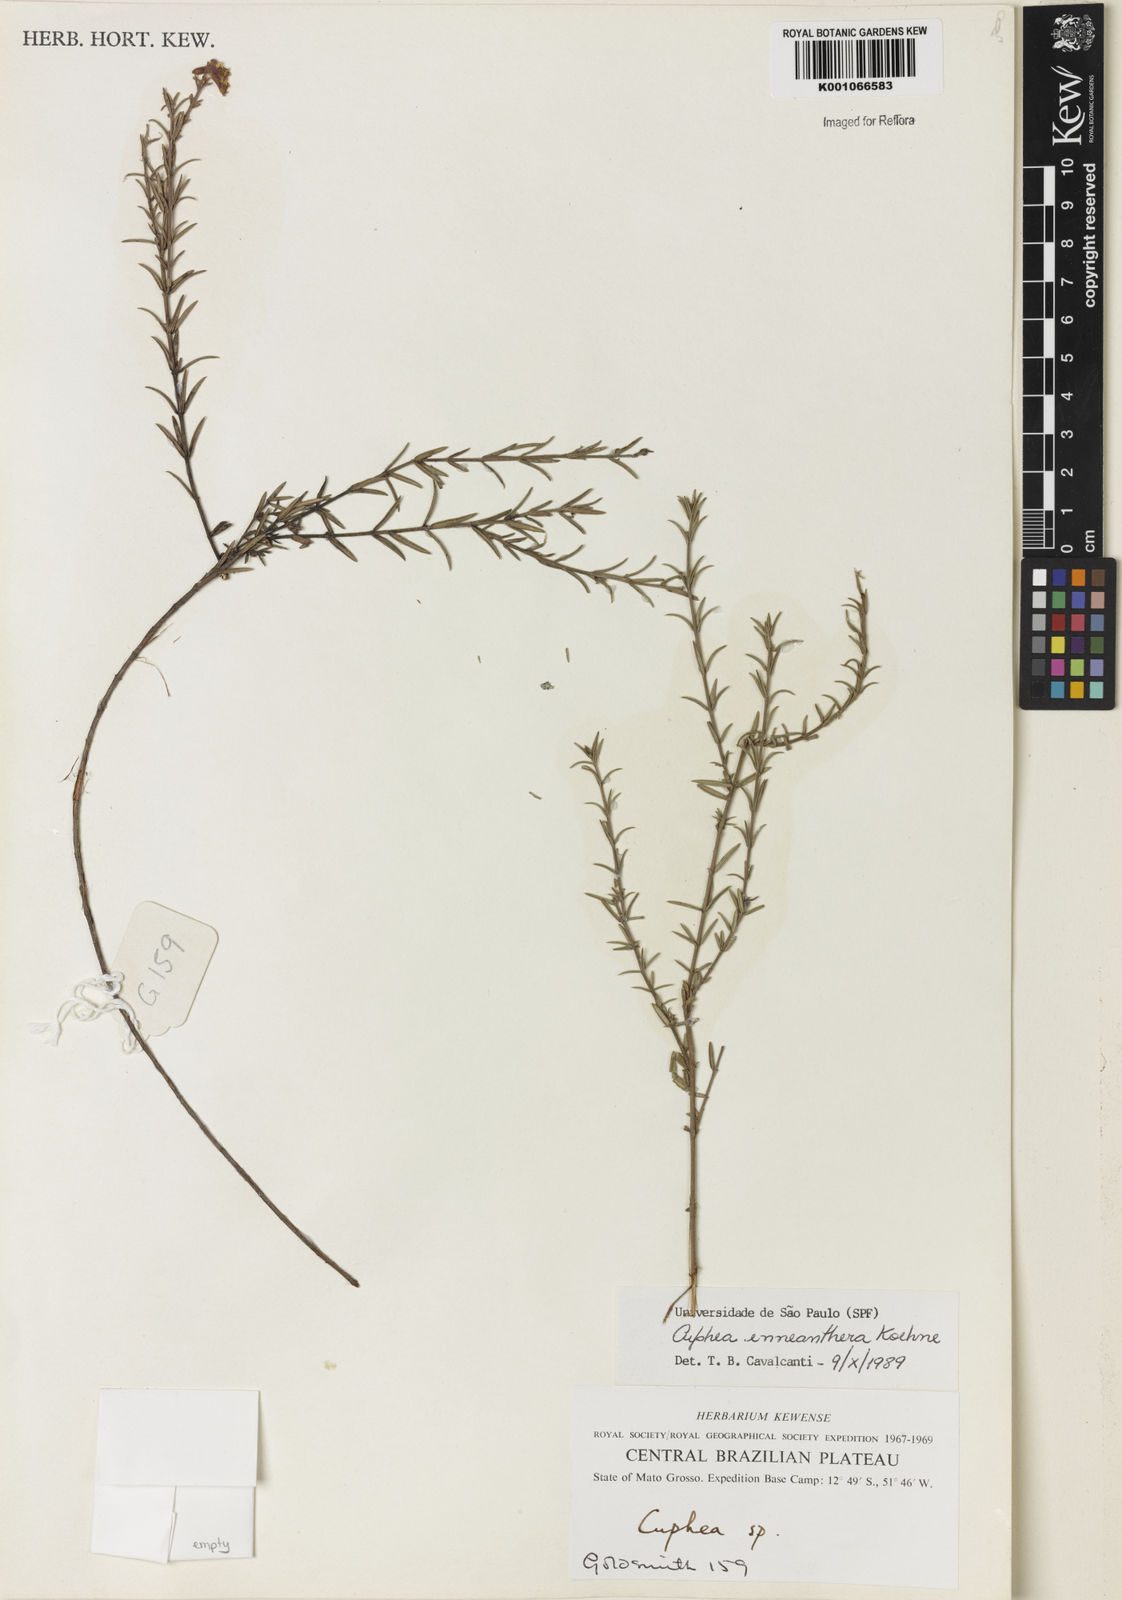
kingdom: Plantae
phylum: Tracheophyta
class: Magnoliopsida
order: Myrtales
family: Lythraceae
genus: Cuphea
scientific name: Cuphea retrorsicapilla
